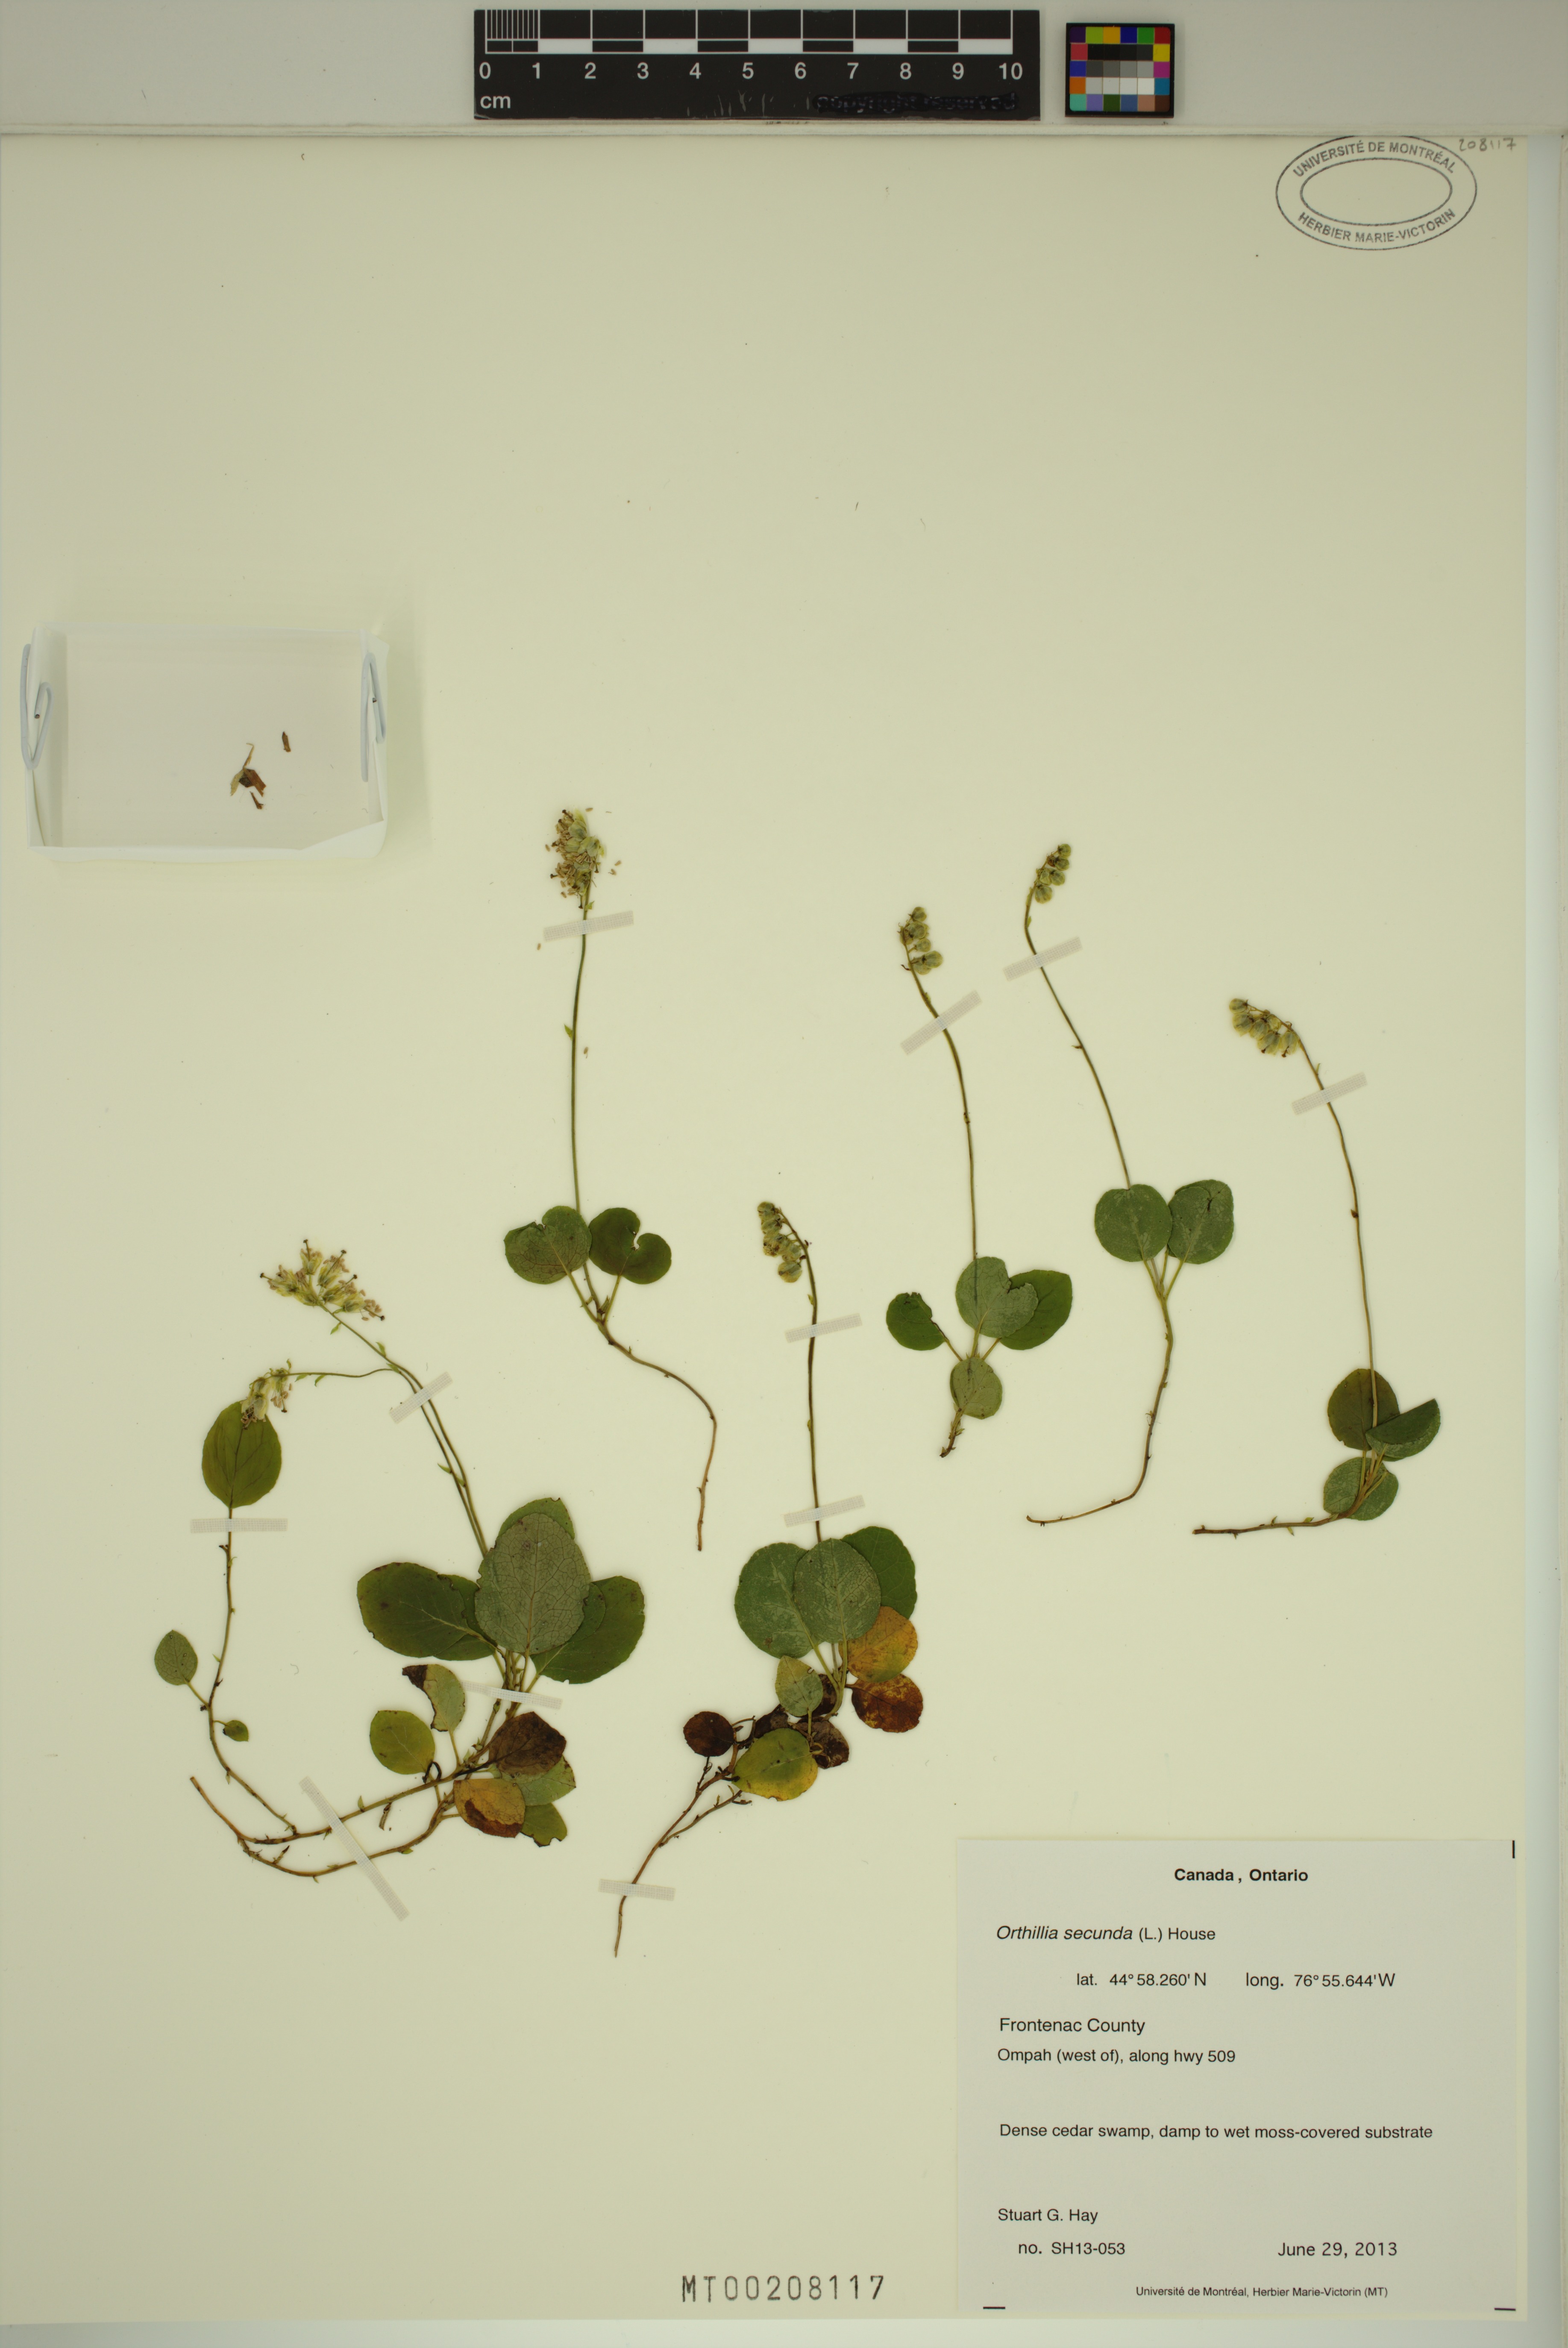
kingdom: Plantae
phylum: Tracheophyta
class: Magnoliopsida
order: Ericales
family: Ericaceae
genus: Orthilia
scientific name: Orthilia secunda
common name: One-sided orthilia
